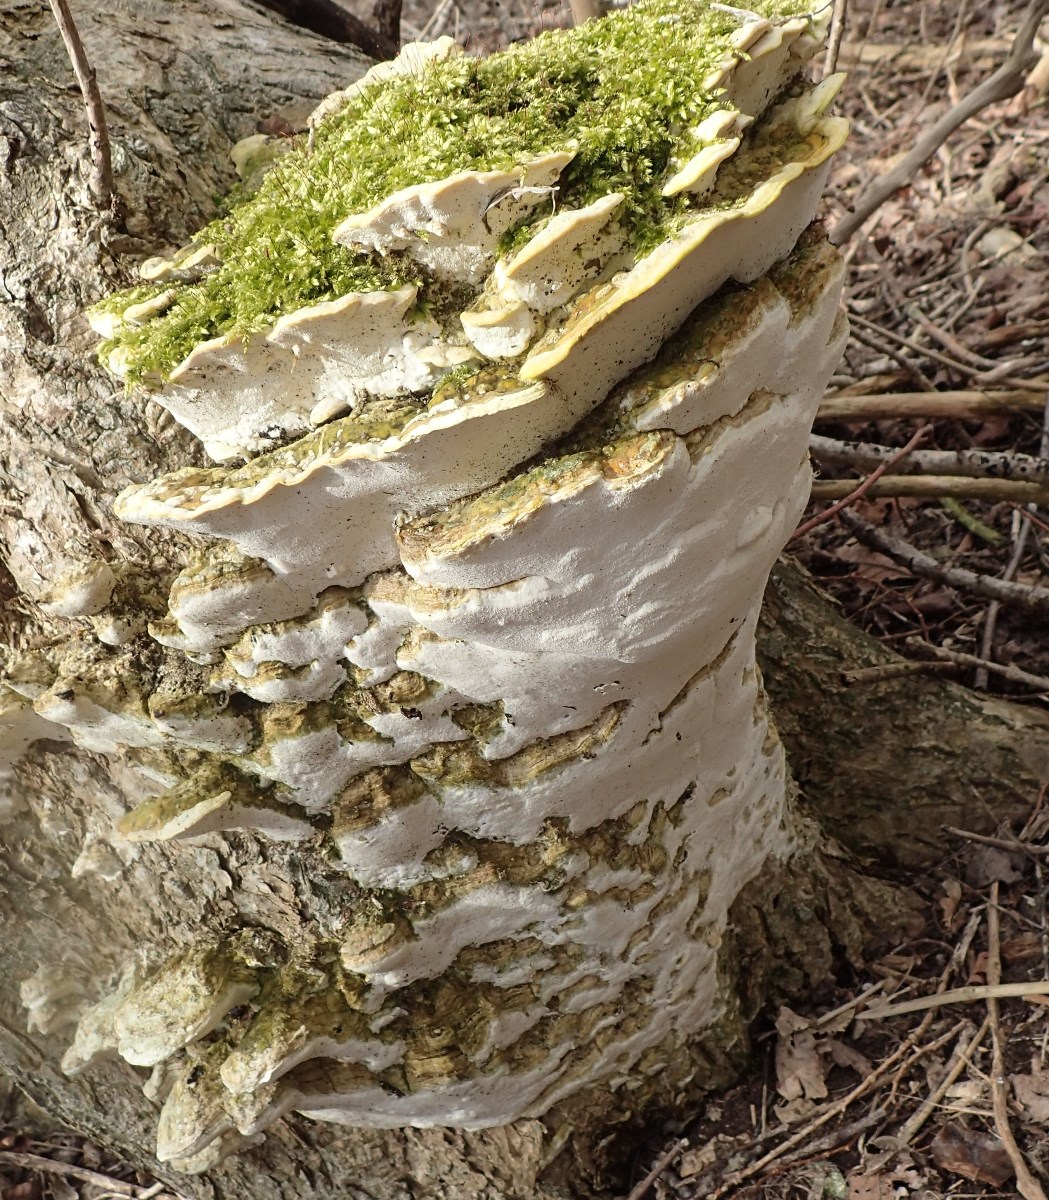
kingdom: Fungi
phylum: Basidiomycota
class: Agaricomycetes
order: Hymenochaetales
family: Oxyporaceae
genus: Oxyporus
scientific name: Oxyporus populinus
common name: sammenvokset trylleporesvamp
